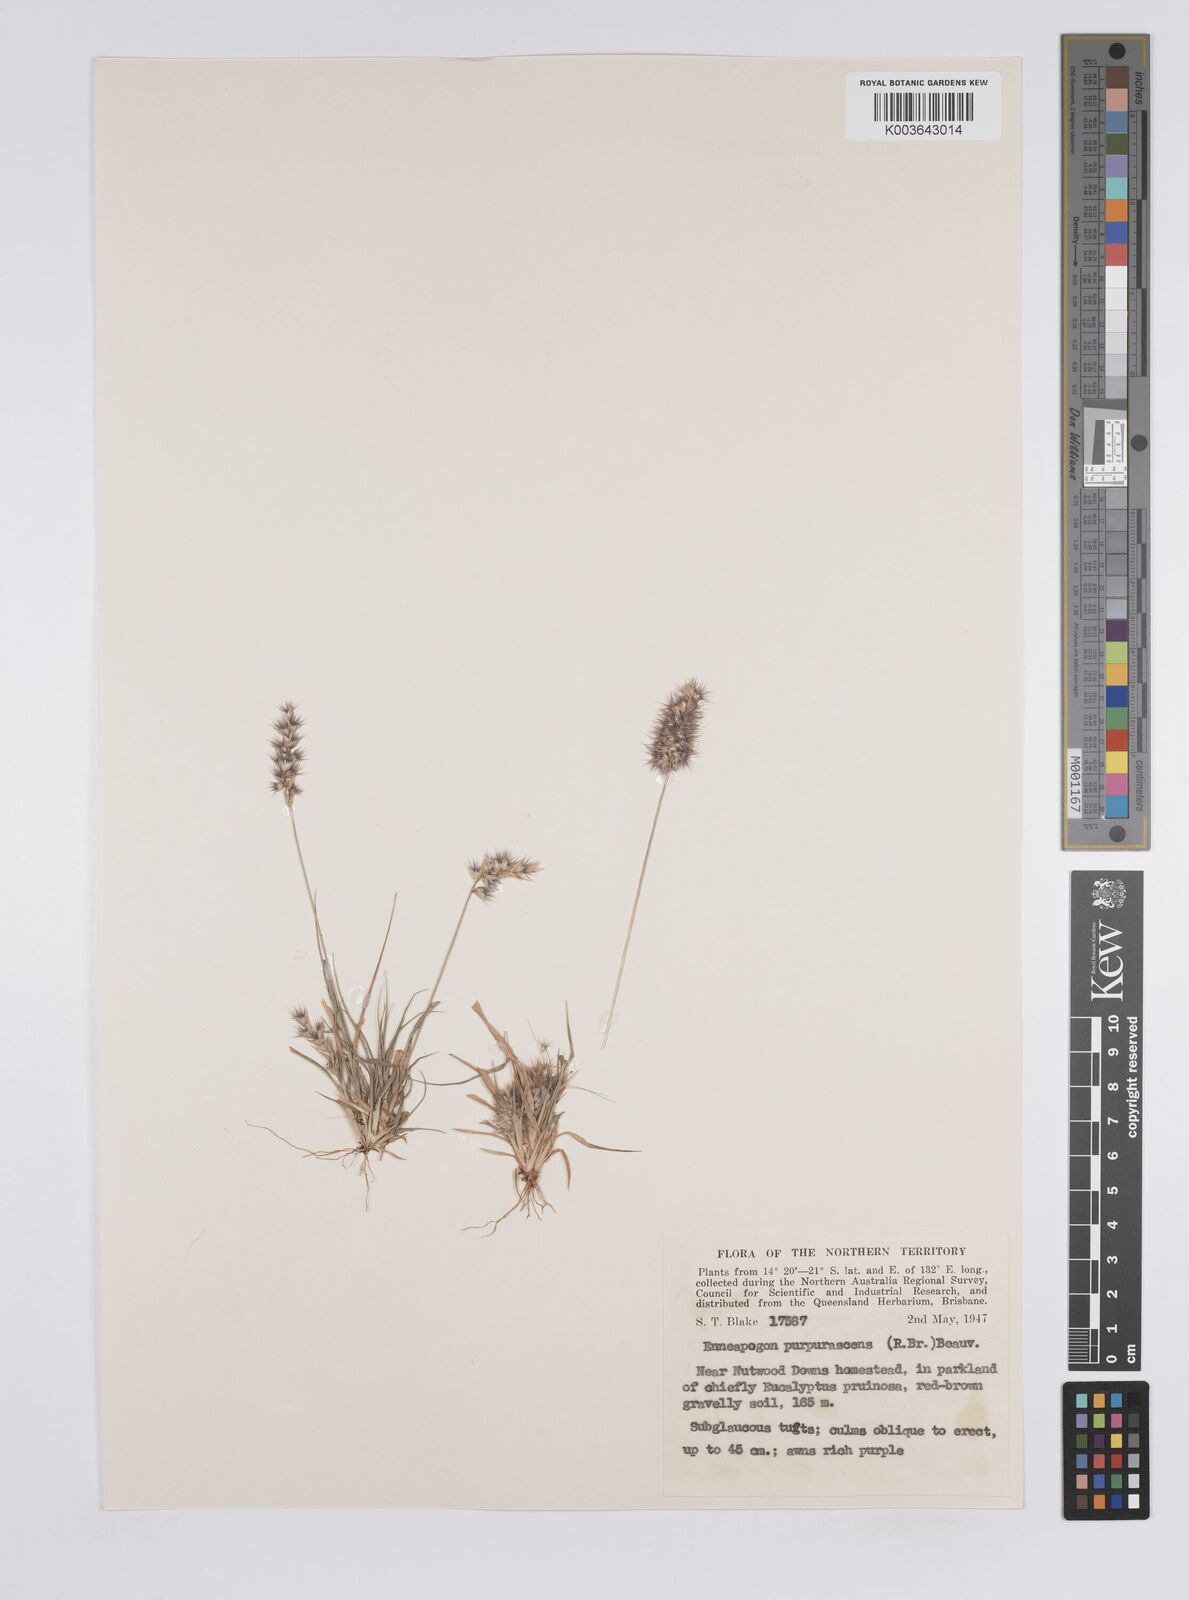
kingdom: Plantae
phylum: Tracheophyta
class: Liliopsida
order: Poales
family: Poaceae
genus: Enneapogon
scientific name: Enneapogon purpurascens
